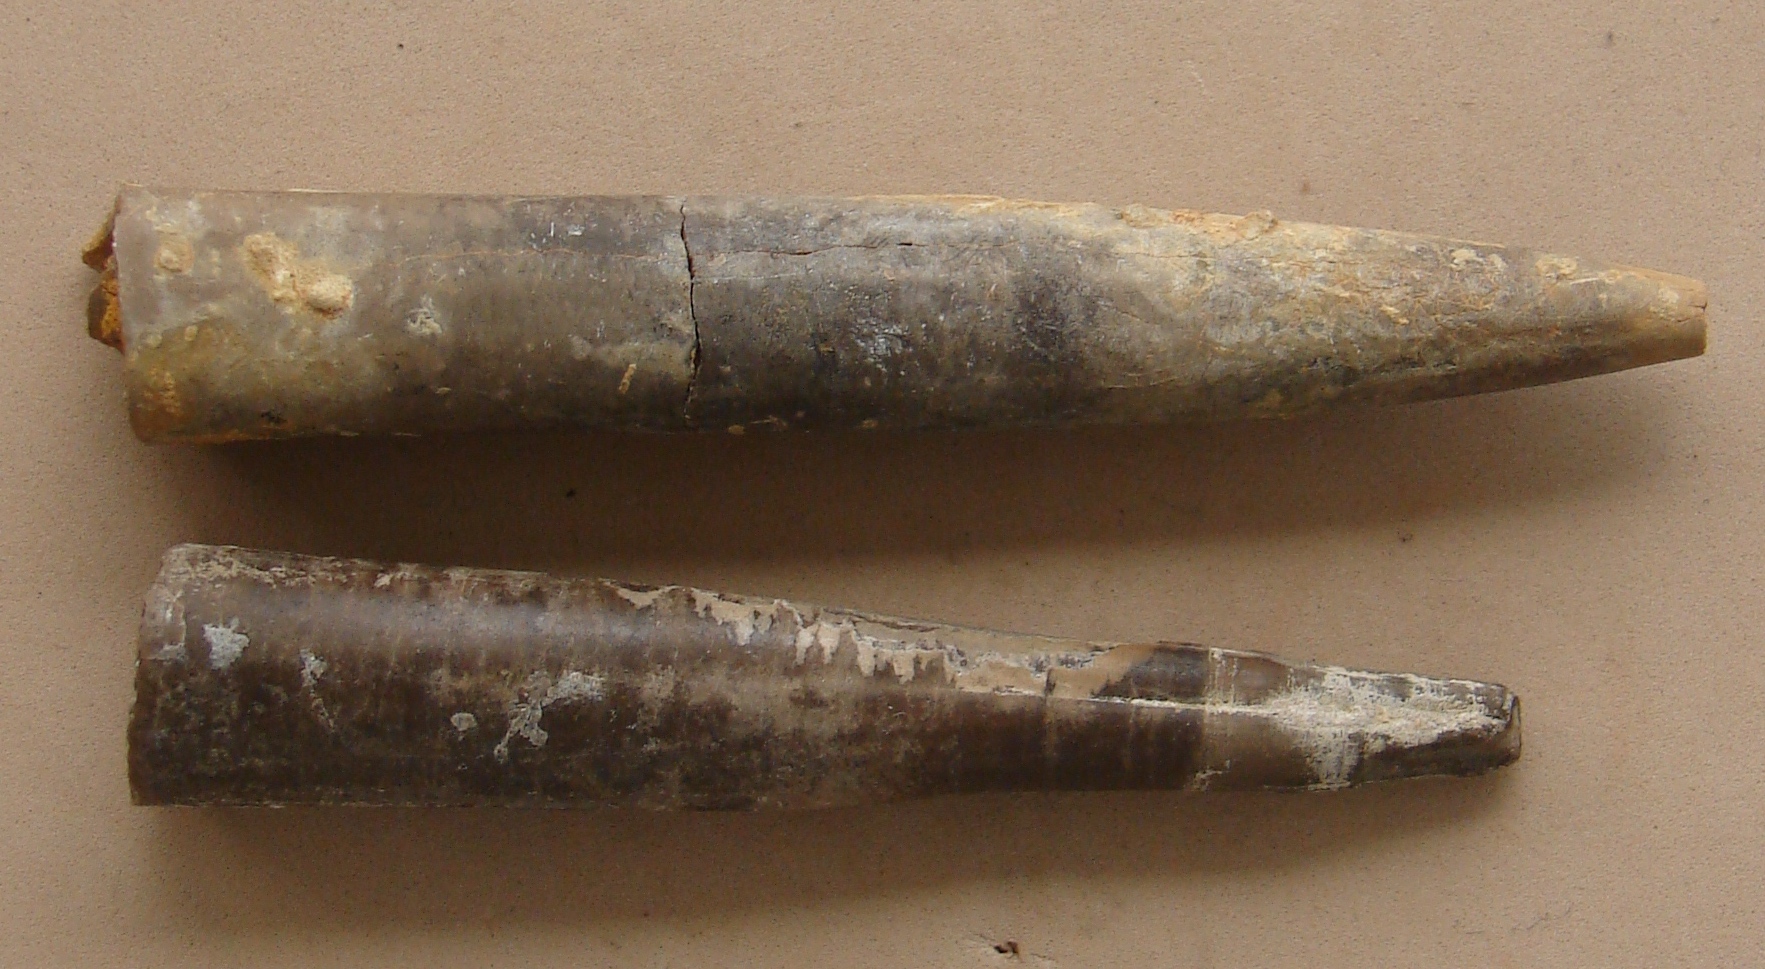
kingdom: Animalia
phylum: Mollusca
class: Cephalopoda
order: Belemnitida
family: Salpingoteuthididae
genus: Salpingoteuthis
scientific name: Salpingoteuthis
